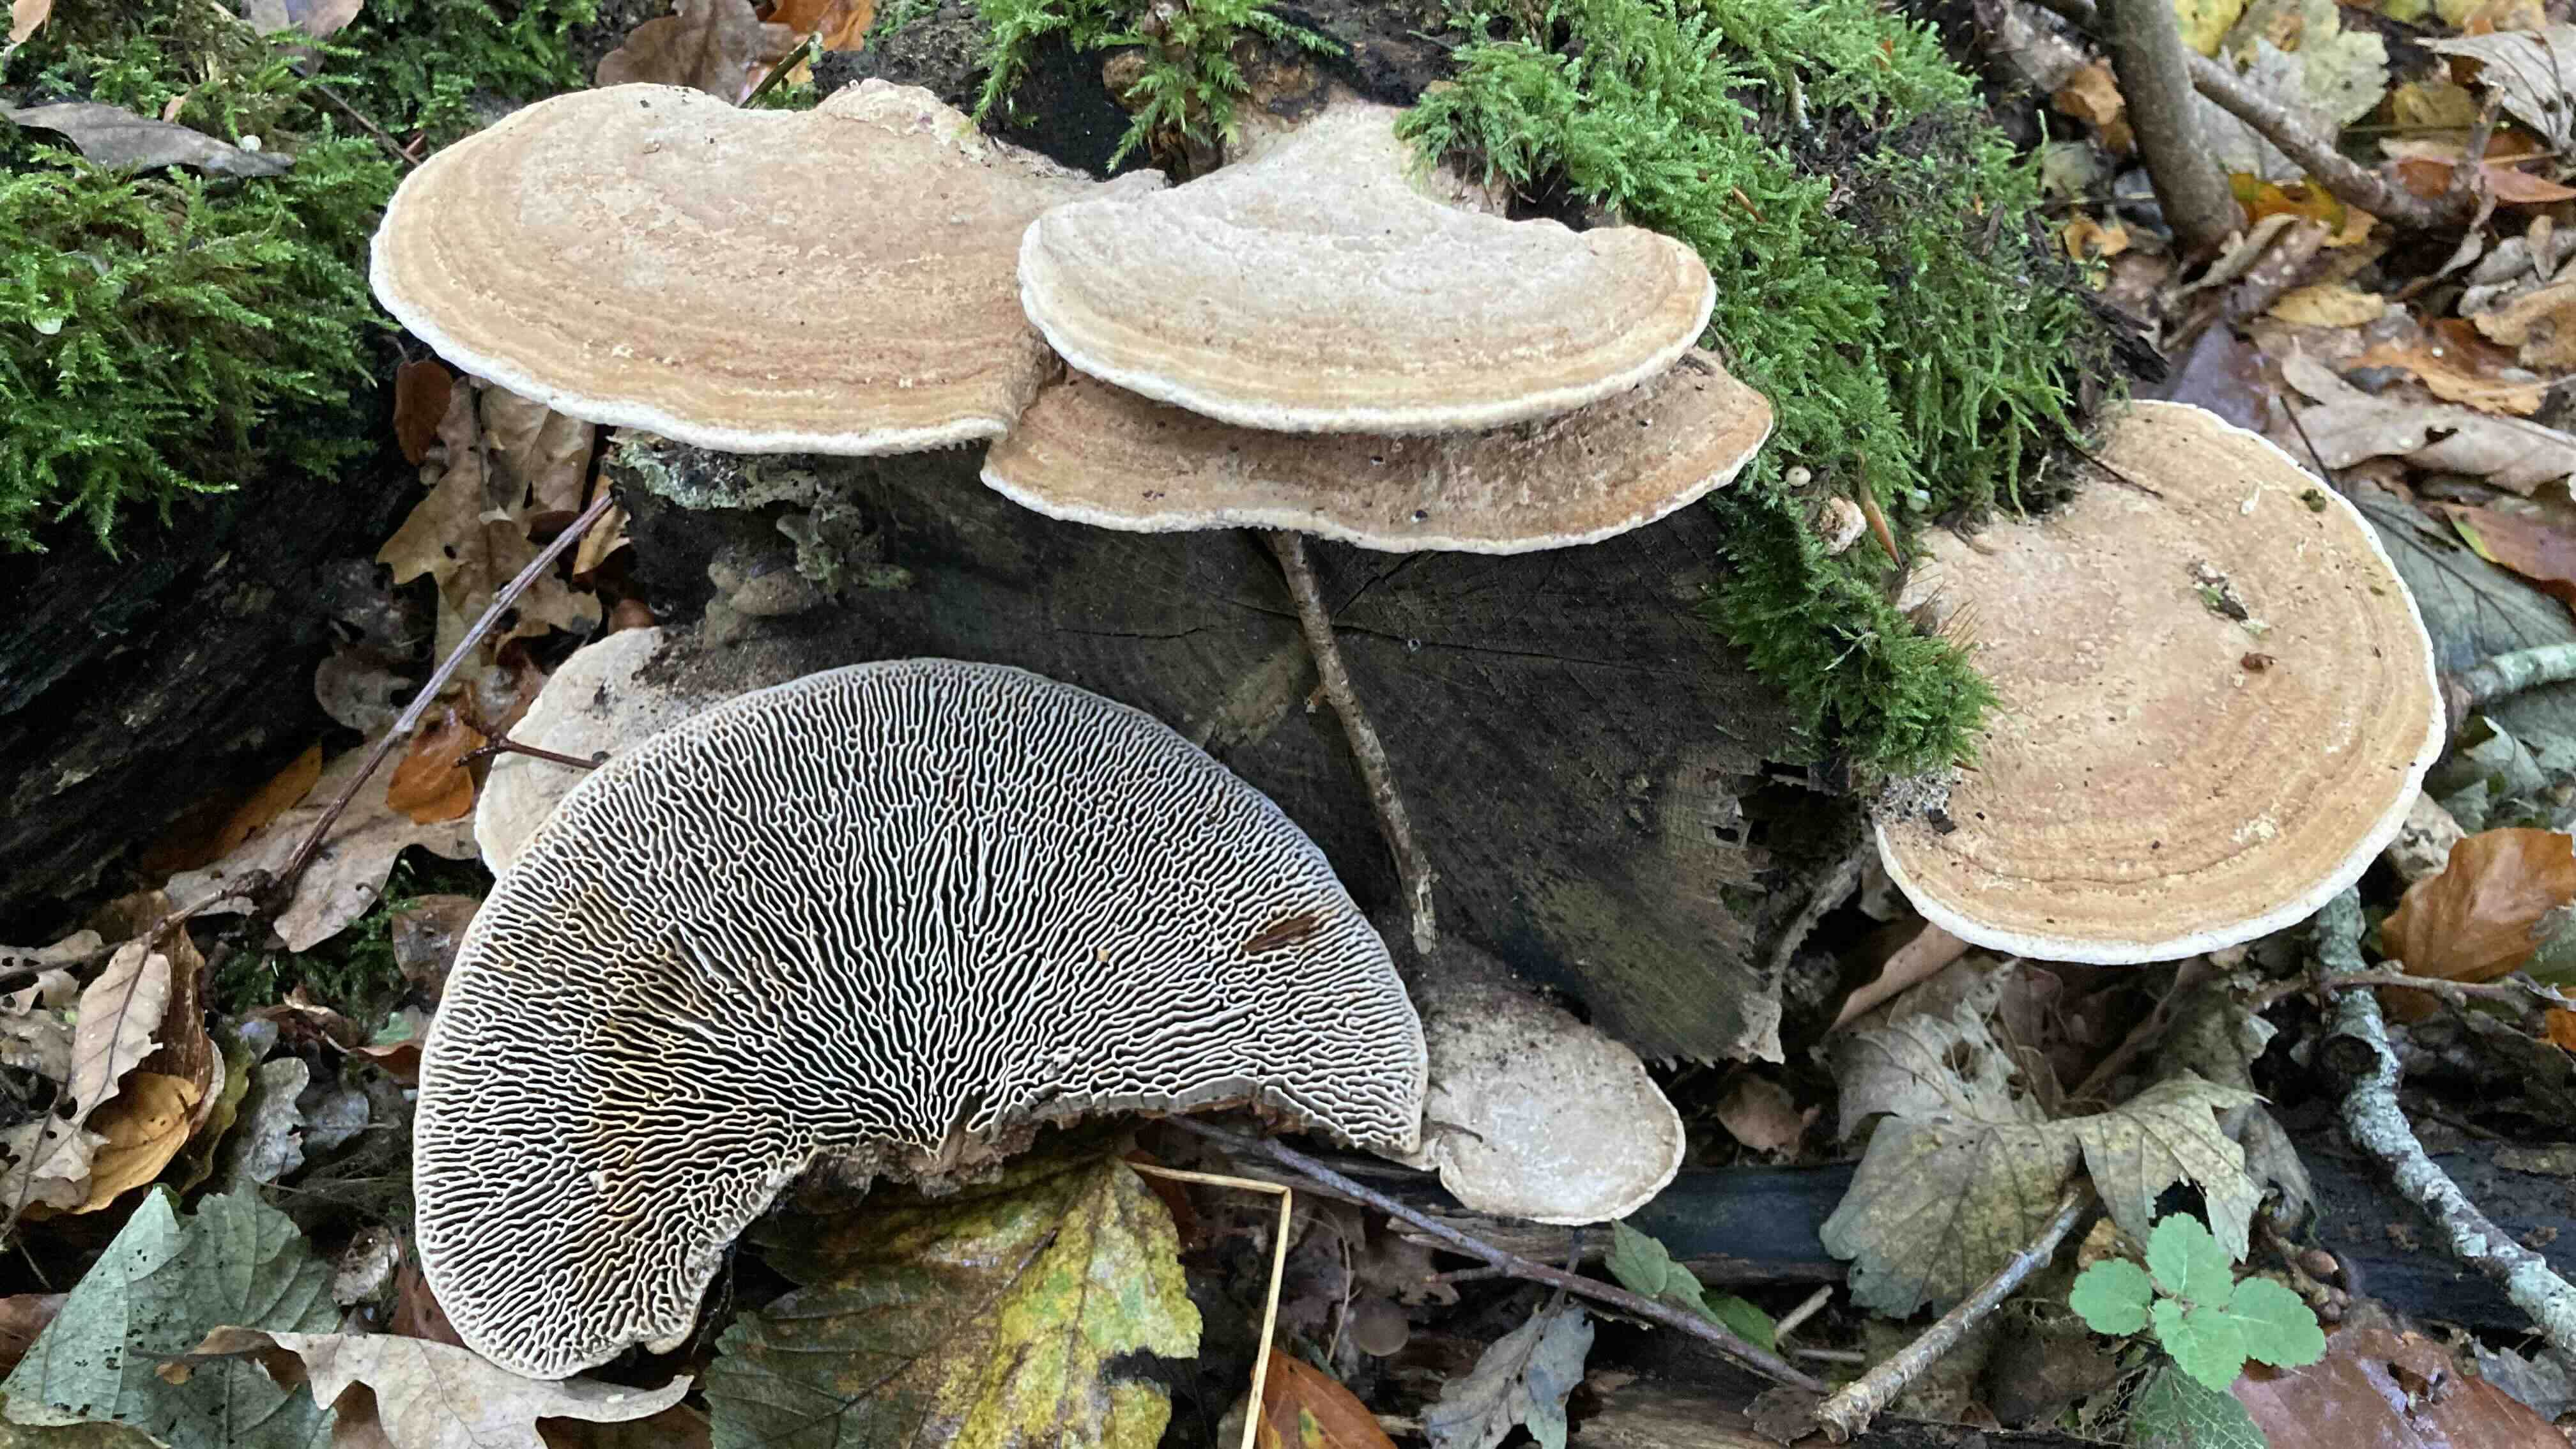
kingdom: Fungi
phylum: Basidiomycota
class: Agaricomycetes
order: Polyporales
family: Fomitopsidaceae
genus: Daedalea
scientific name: Daedalea quercina
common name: ege-labyrintsvamp
